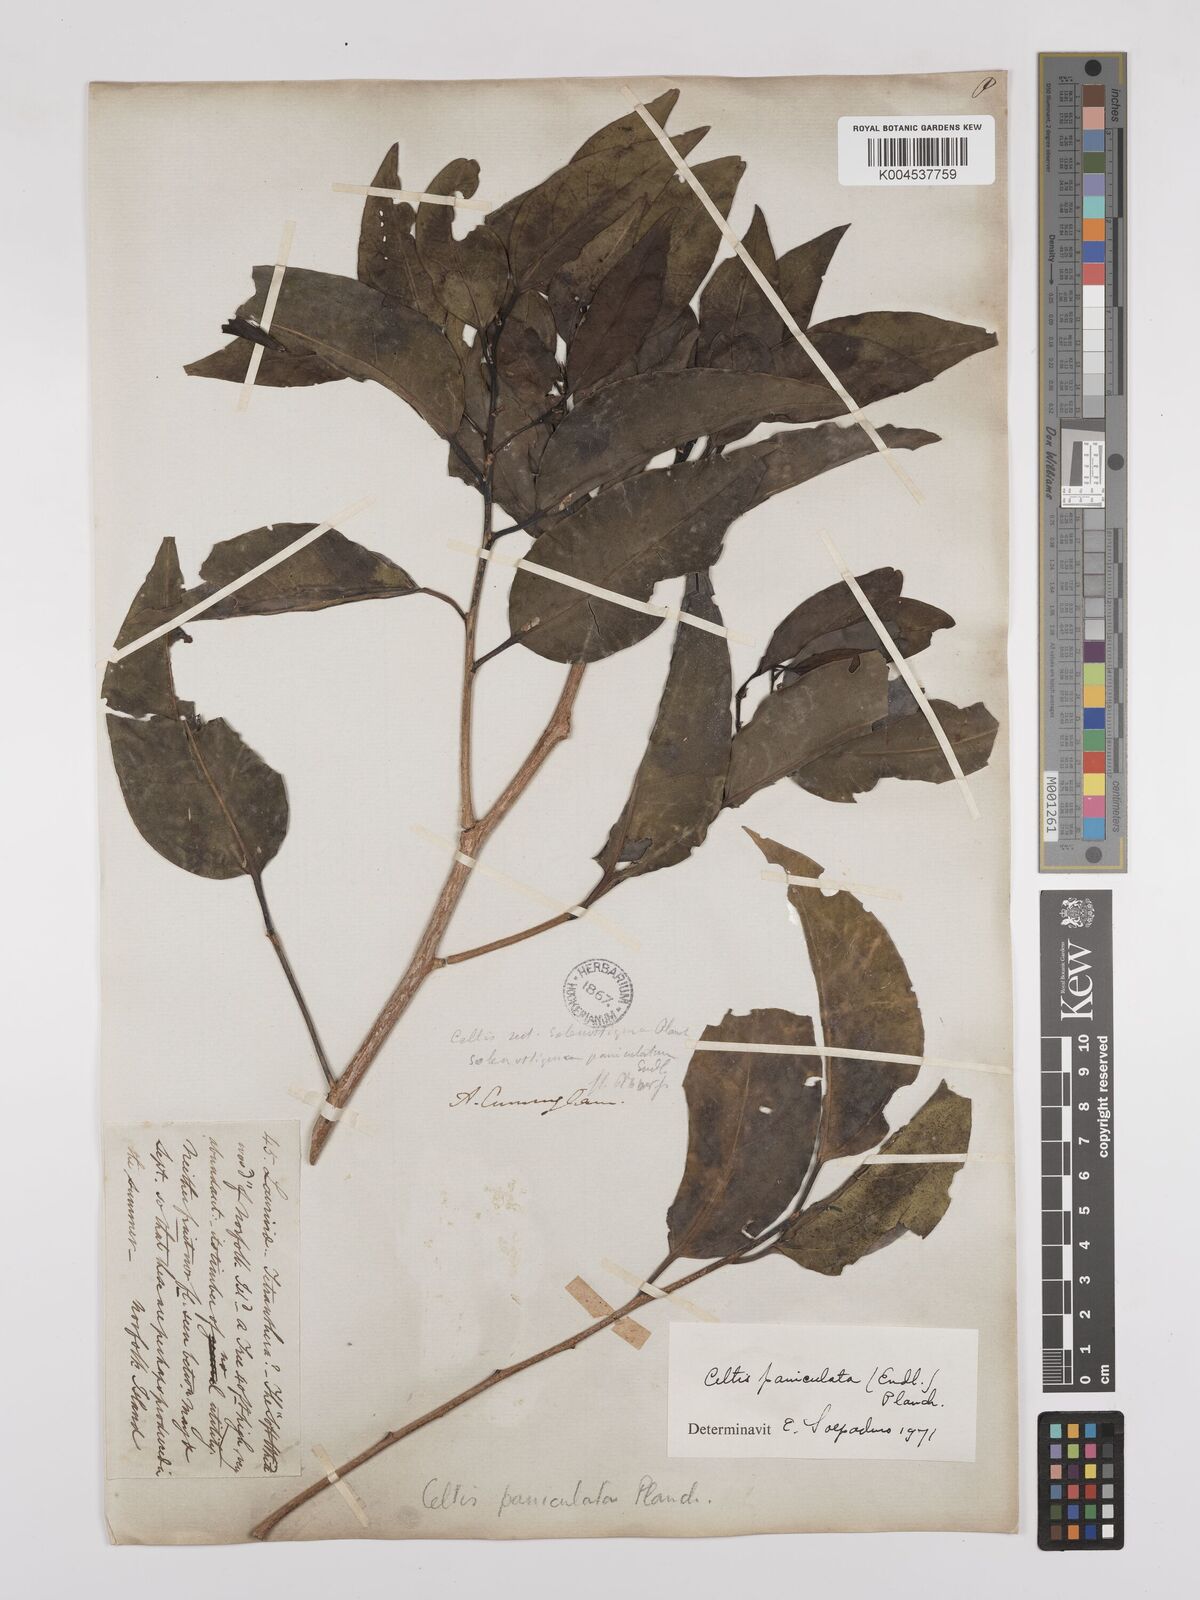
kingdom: Plantae
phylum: Tracheophyta
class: Magnoliopsida
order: Rosales
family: Cannabaceae
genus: Celtis
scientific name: Celtis paniculata
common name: Silky celtis
